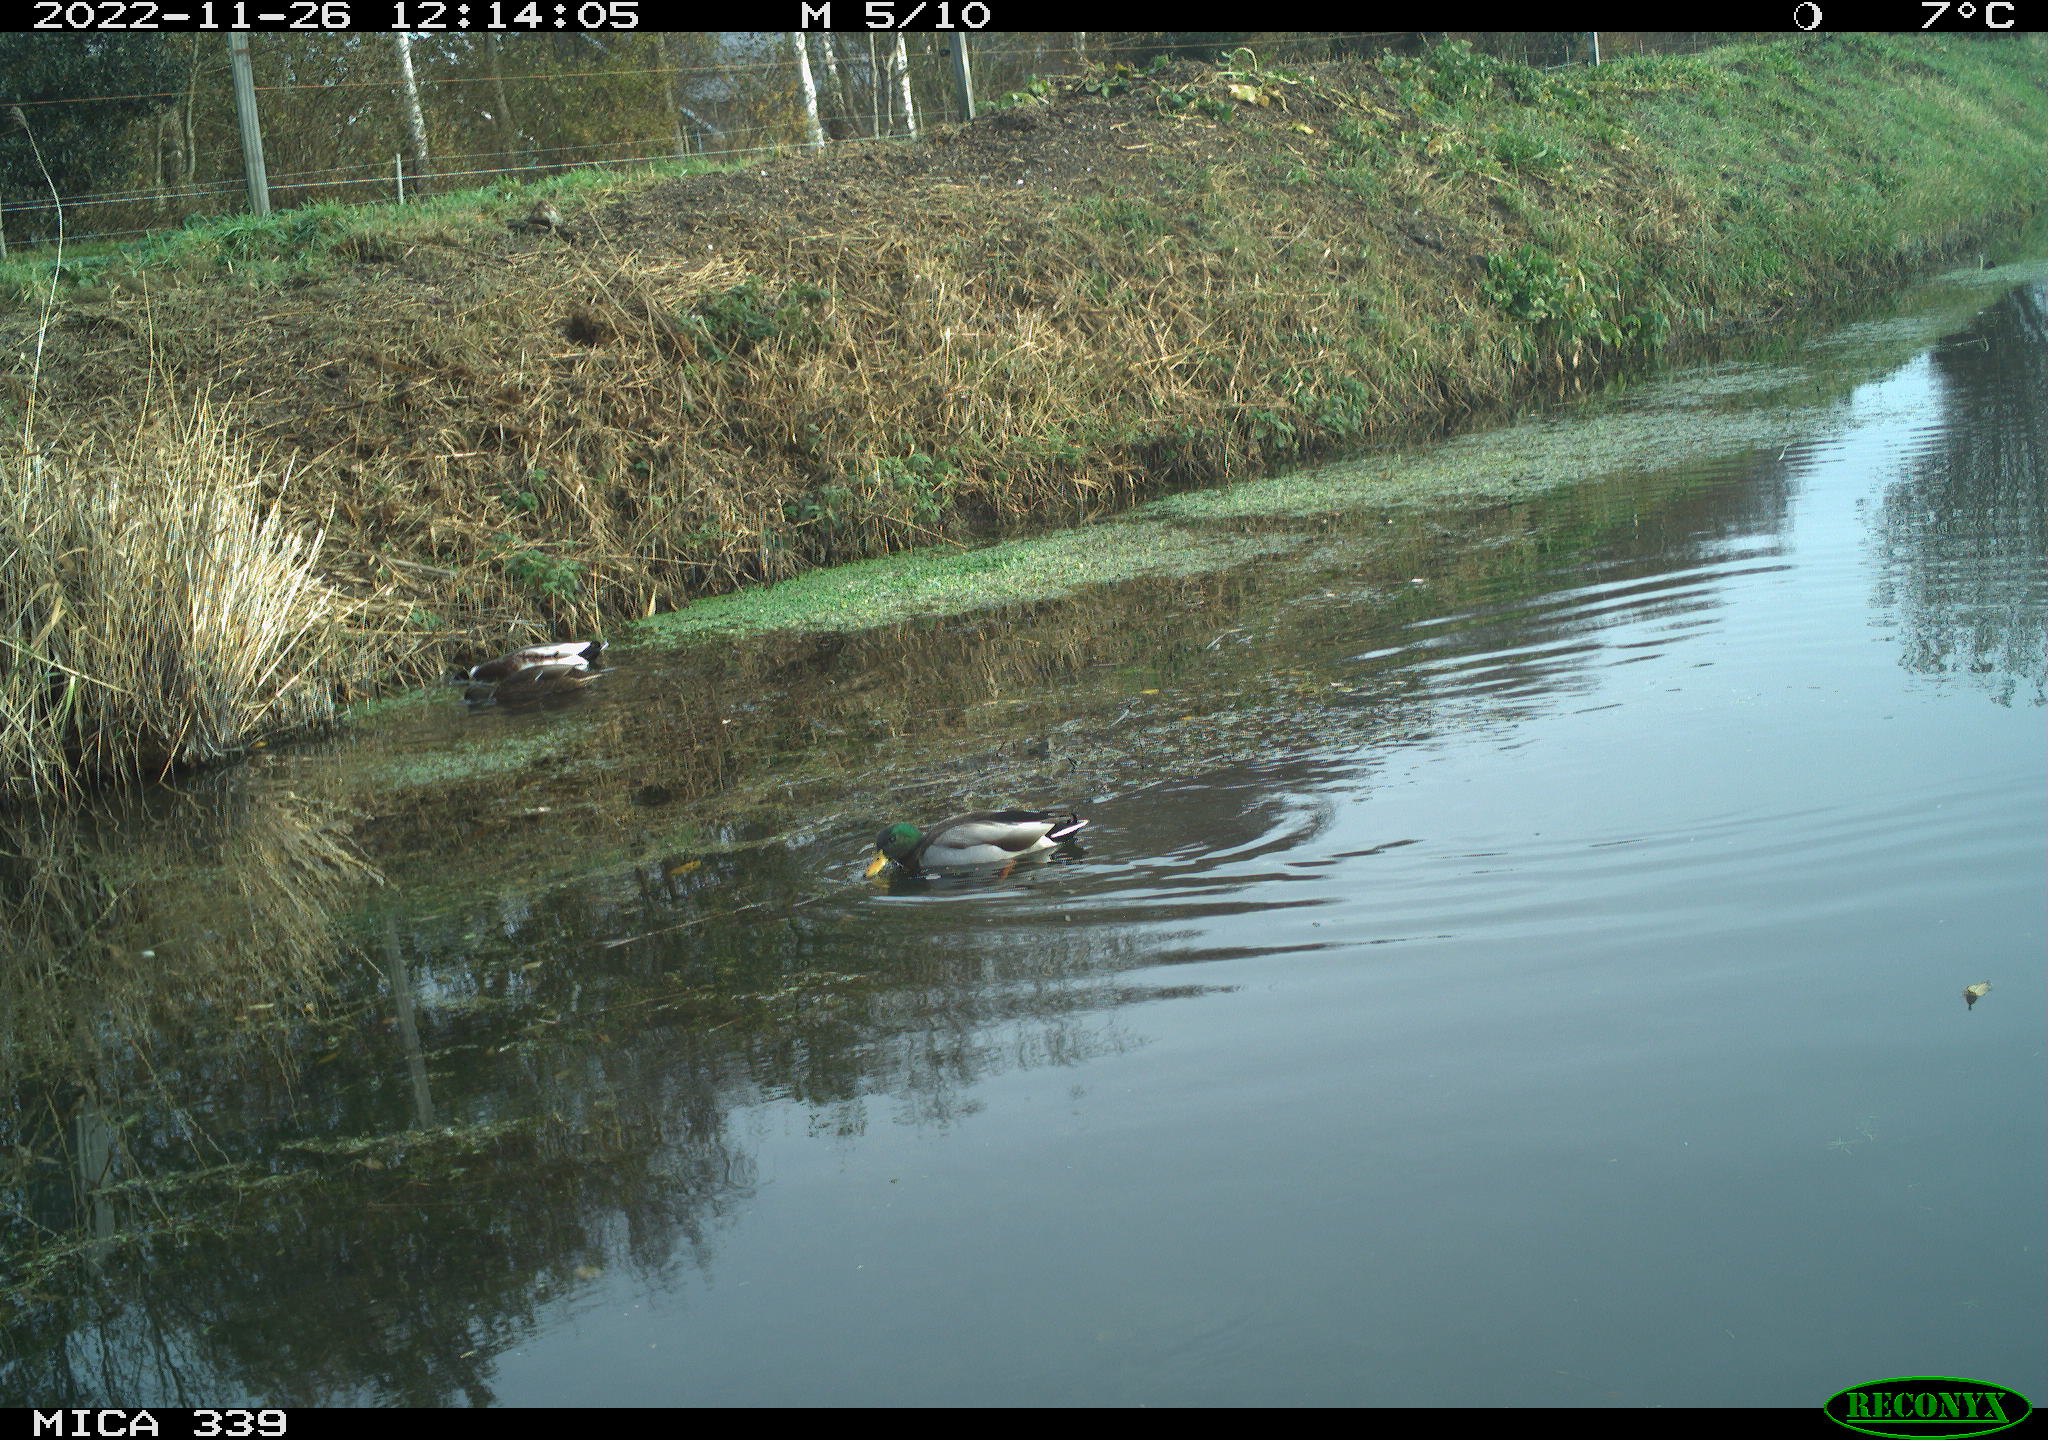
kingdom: Animalia
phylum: Chordata
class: Aves
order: Anseriformes
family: Anatidae
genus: Anas
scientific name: Anas
